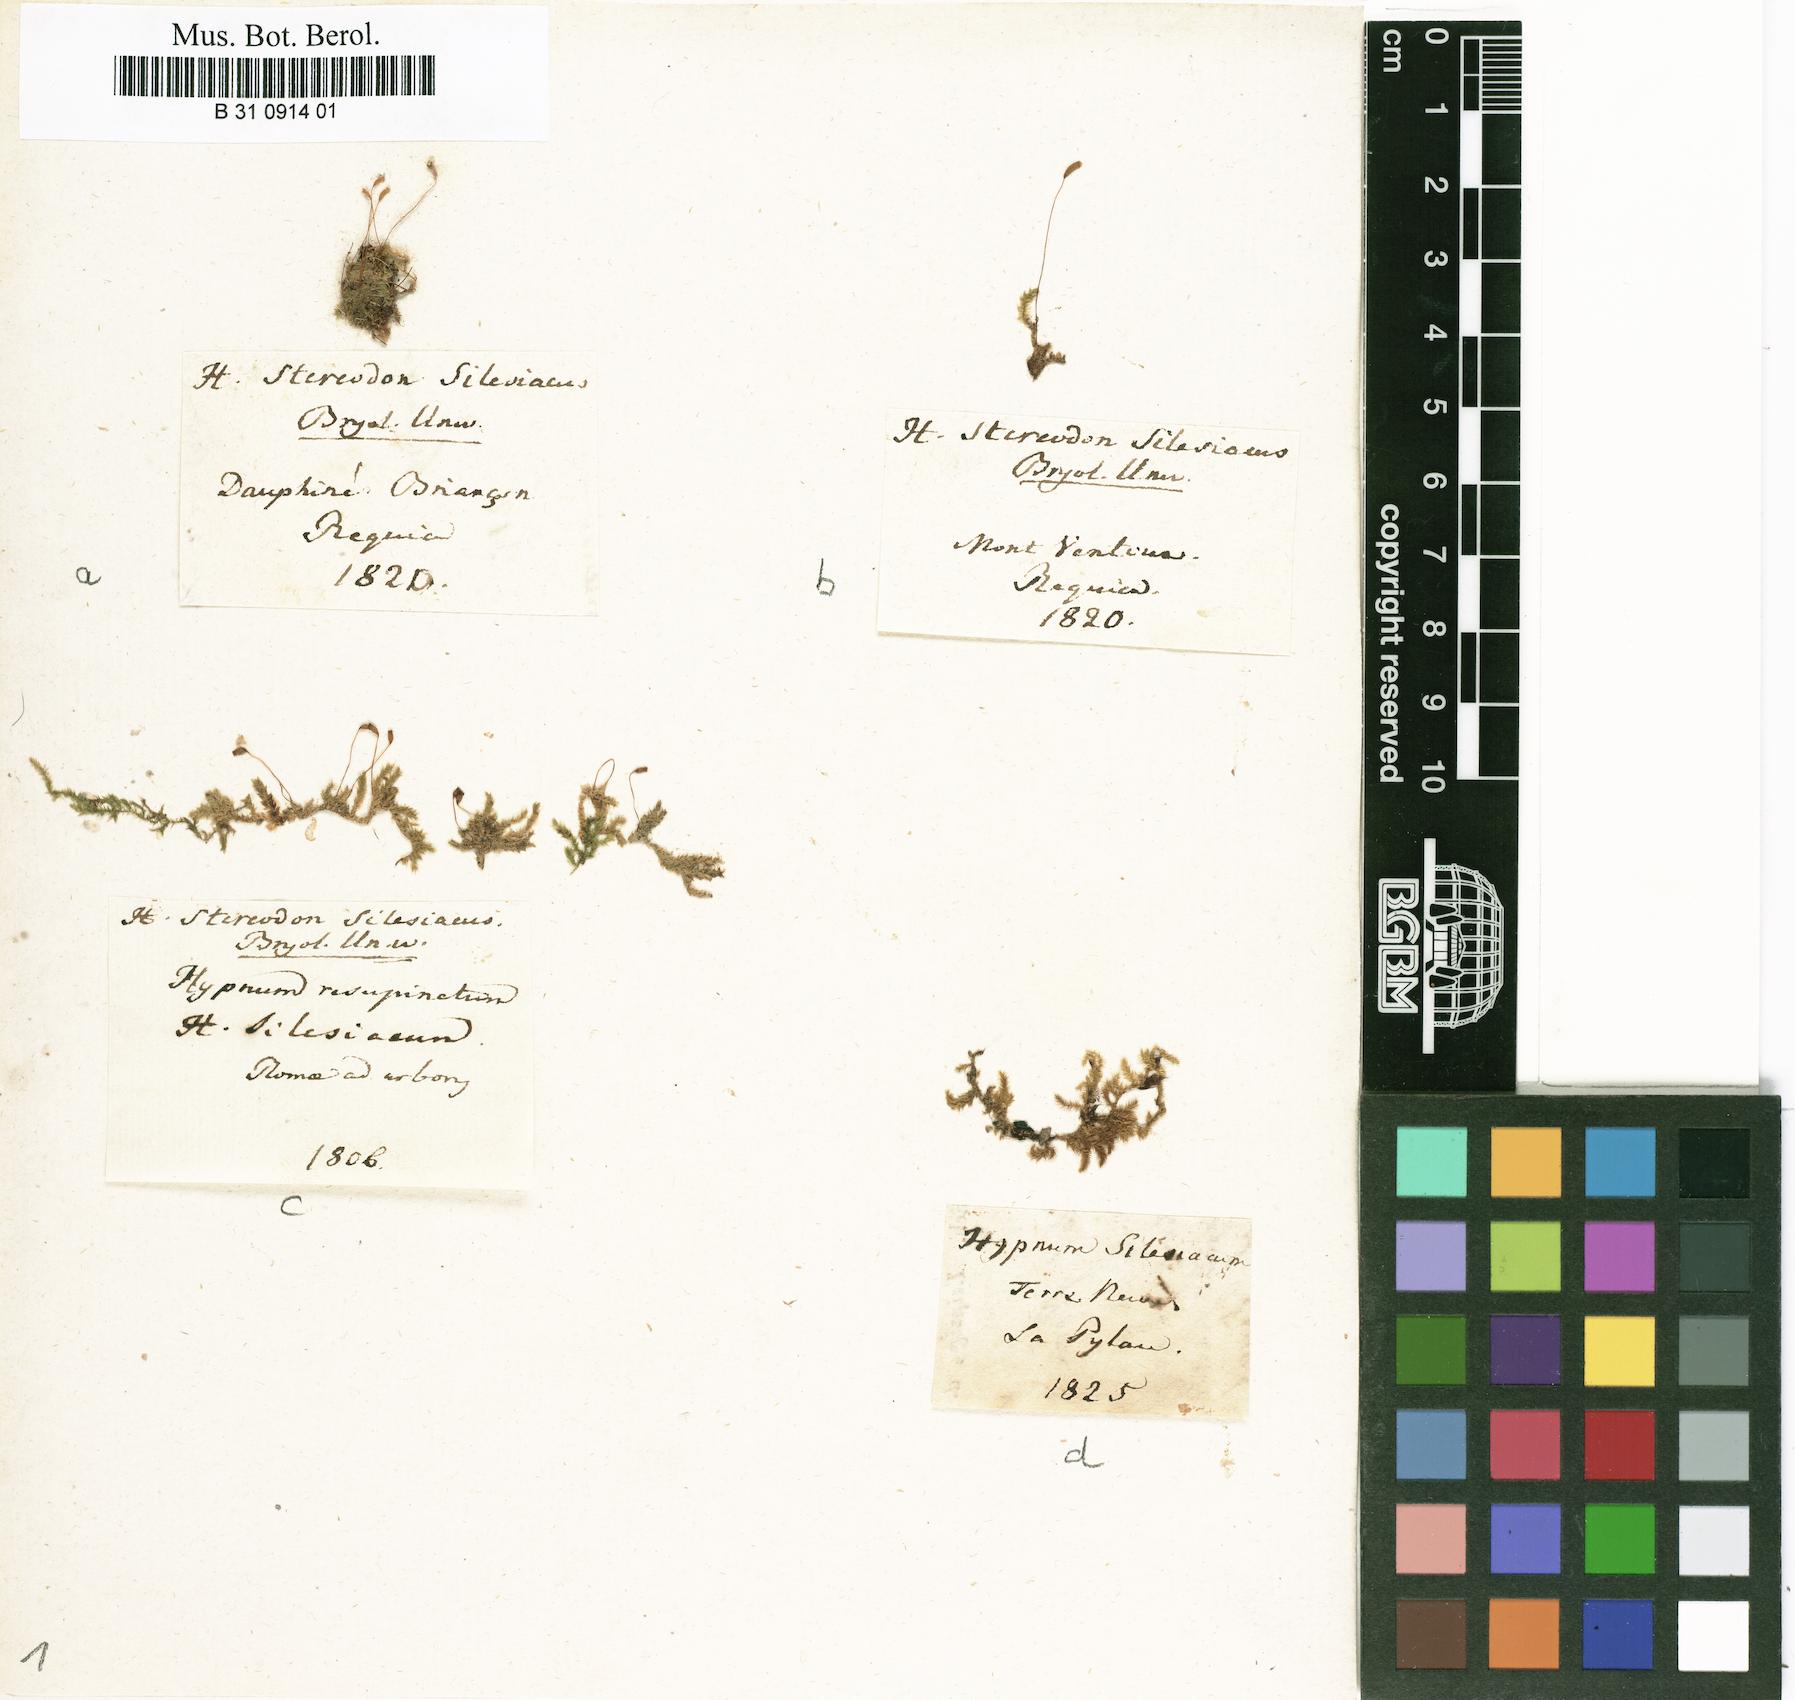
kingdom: Plantae
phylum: Bryophyta
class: Bryopsida
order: Hypnales
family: Plagiotheciaceae
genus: Herzogiella
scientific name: Herzogiella seligeri
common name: Silesian feather-moss
